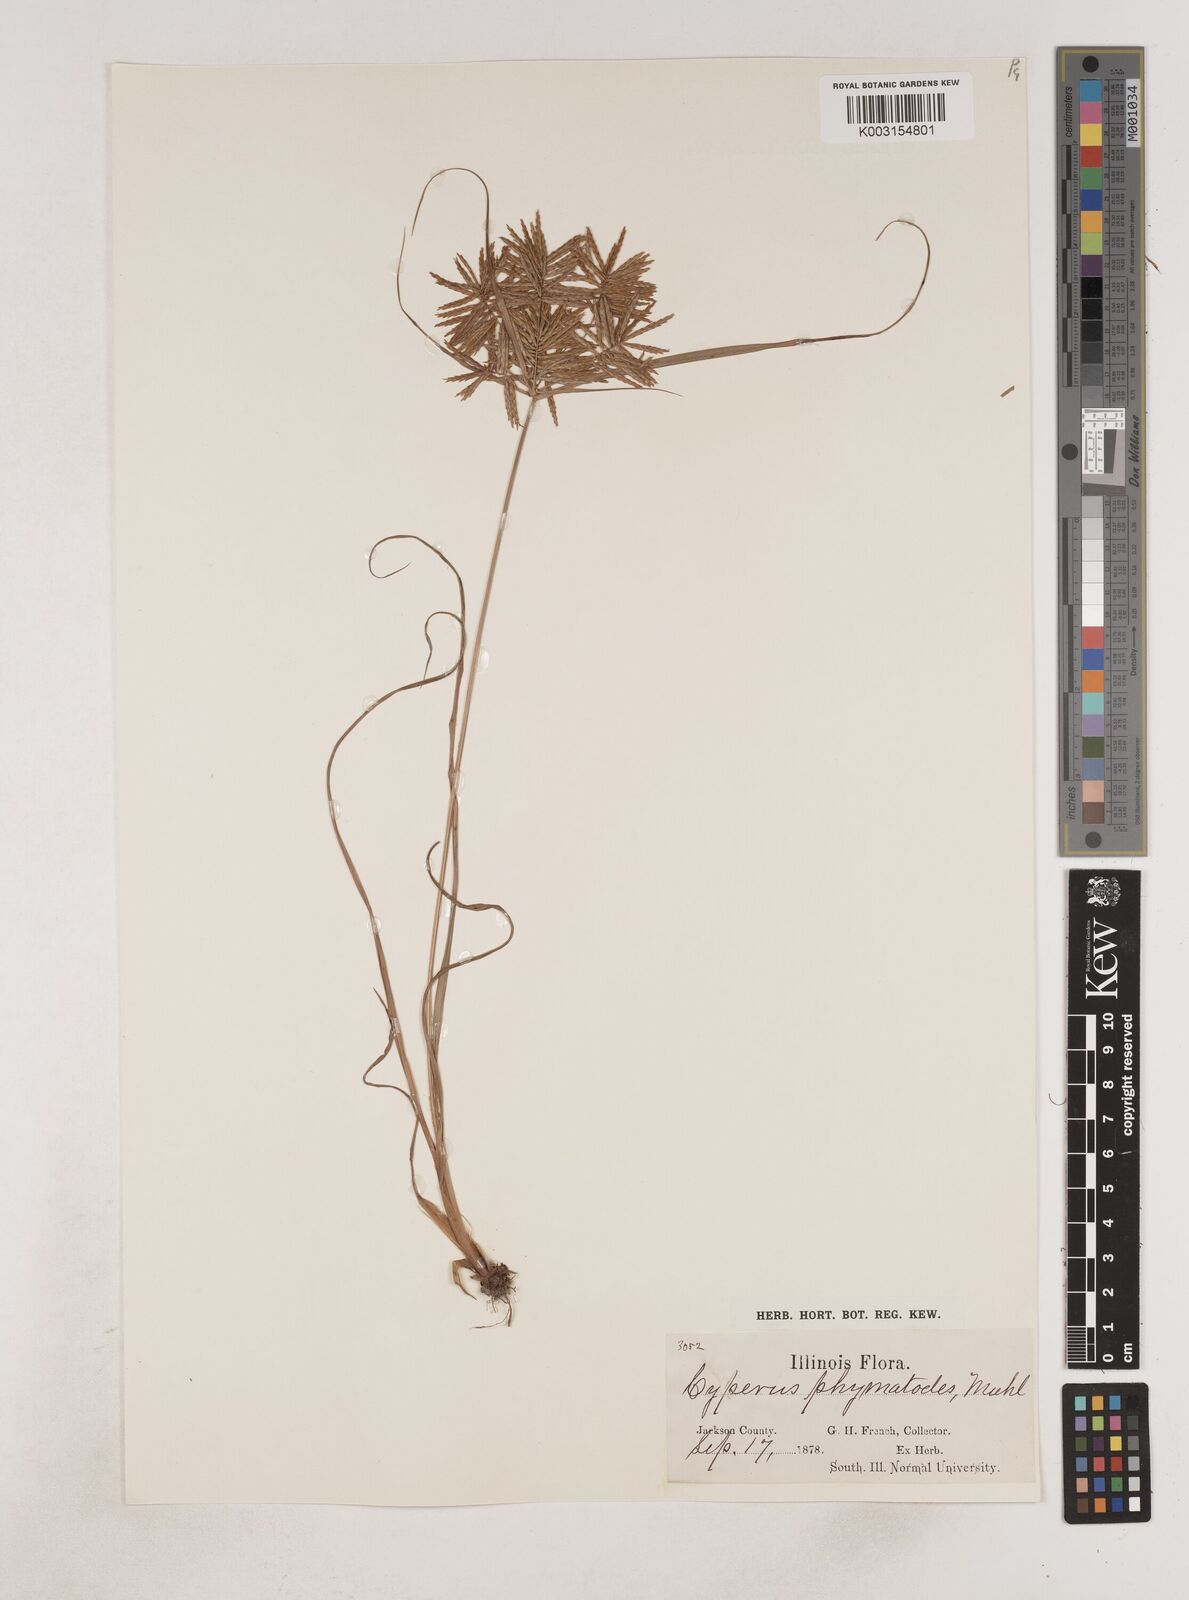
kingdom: Plantae
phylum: Tracheophyta
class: Liliopsida
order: Poales
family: Cyperaceae
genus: Cyperus
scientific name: Cyperus esculentus
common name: Yellow nutsedge
